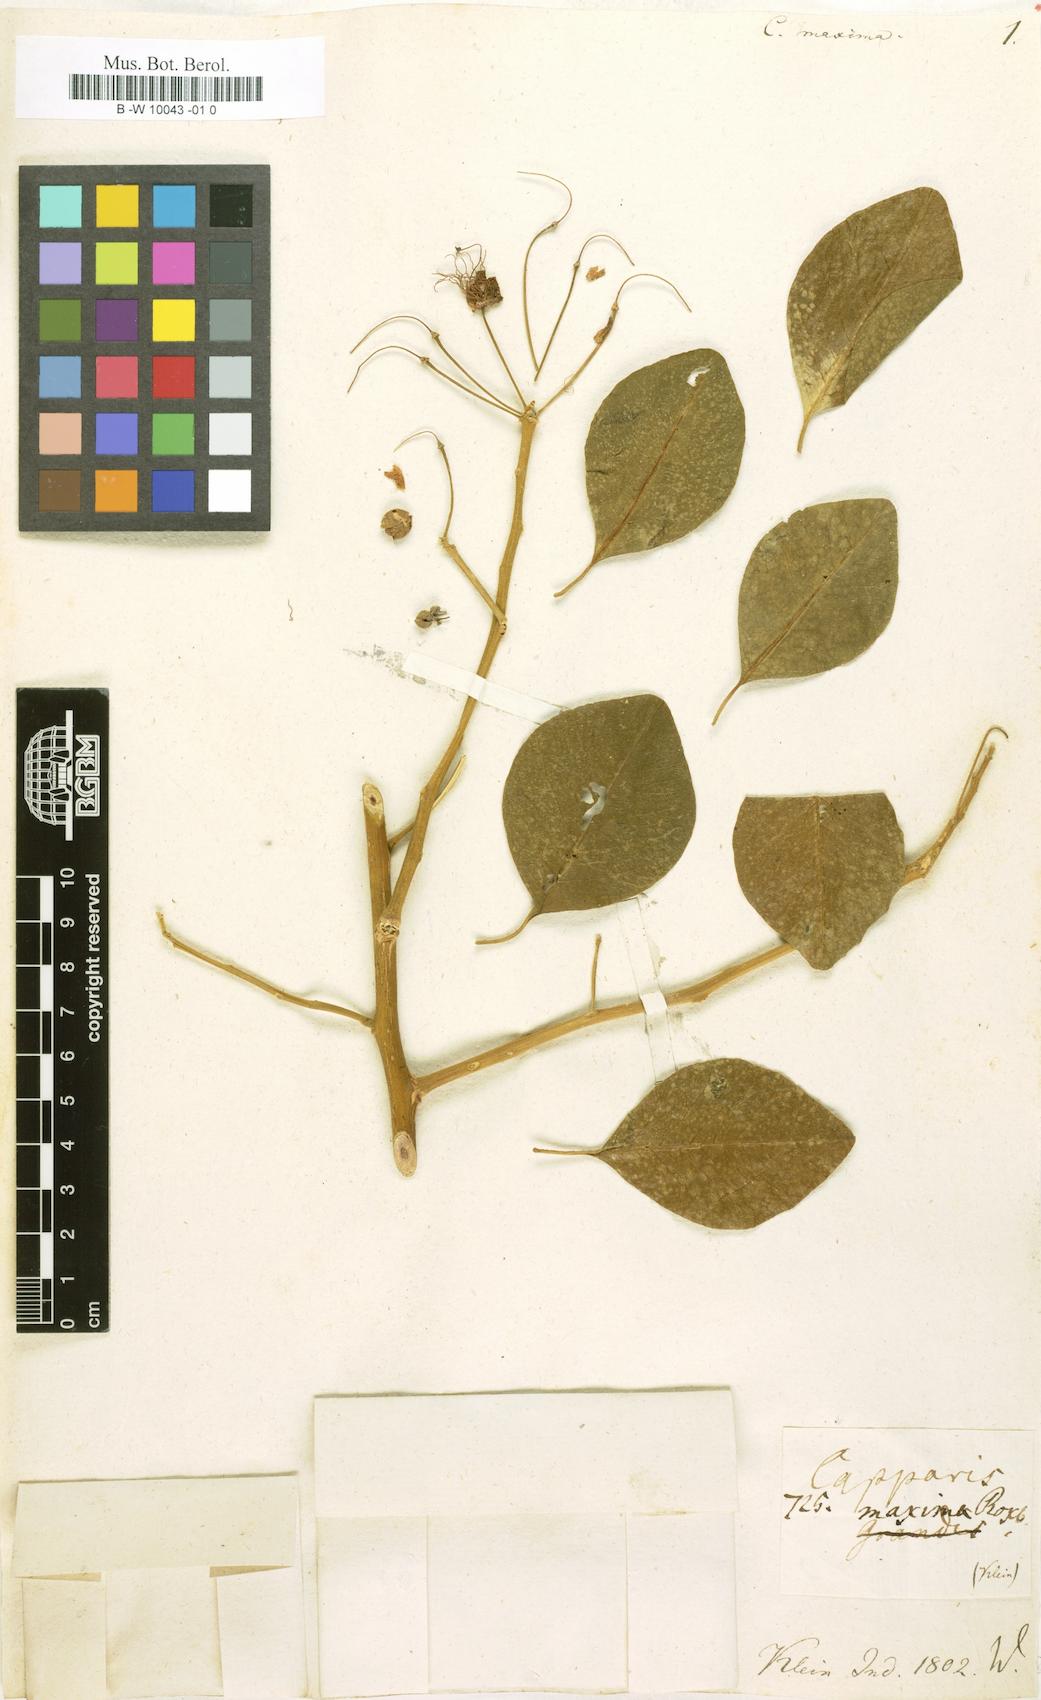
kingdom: Plantae
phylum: Tracheophyta
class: Magnoliopsida
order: Brassicales
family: Capparaceae
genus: Capparis
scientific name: Capparis grandis
